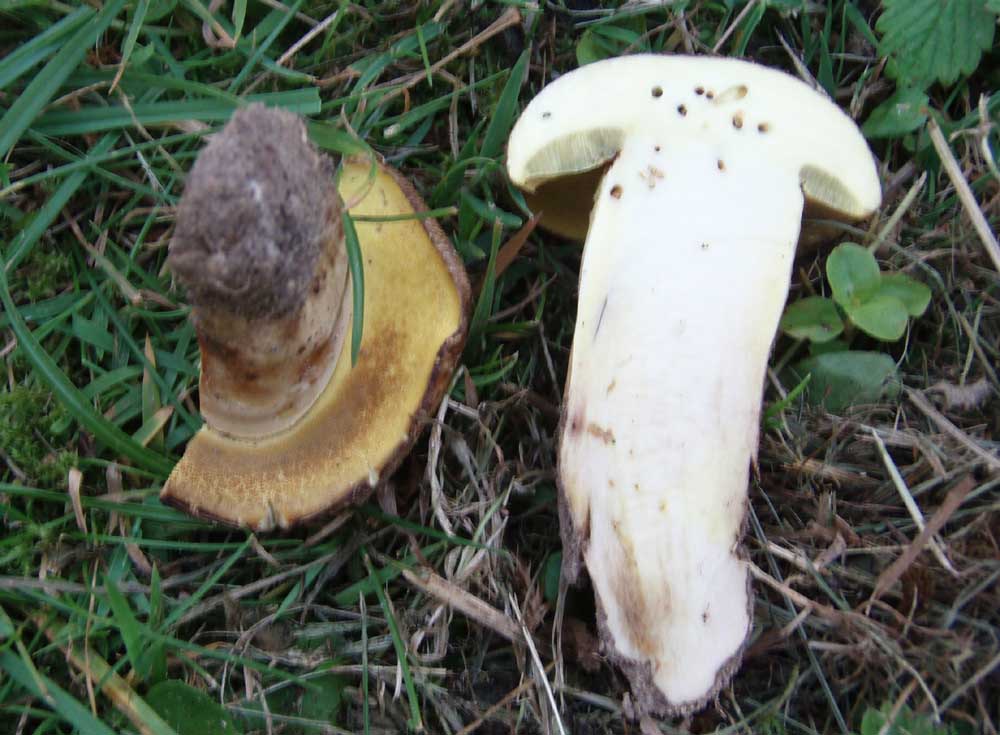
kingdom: Fungi
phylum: Basidiomycota
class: Agaricomycetes
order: Boletales
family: Boletaceae
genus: Xerocomus
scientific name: Xerocomus ferrugineus
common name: vaskeskinds-rørhat
